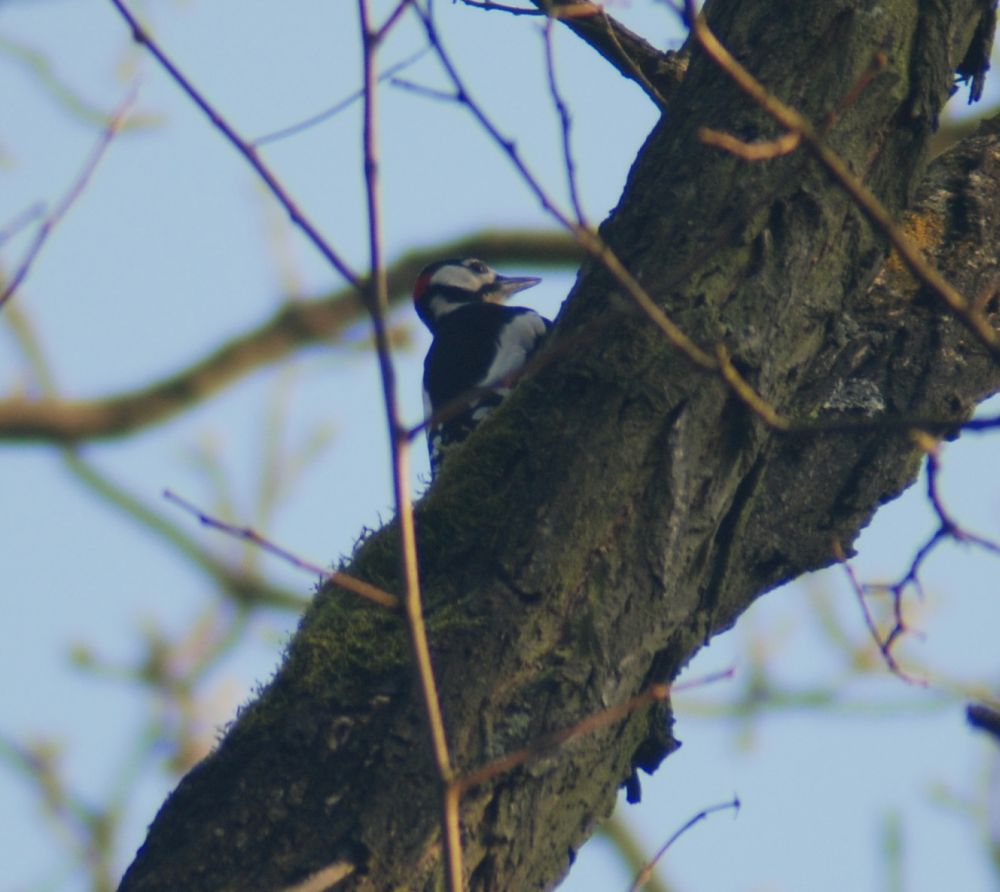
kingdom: Animalia
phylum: Chordata
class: Aves
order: Piciformes
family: Picidae
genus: Dendrocopos
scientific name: Dendrocopos major
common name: Great spotted woodpecker
